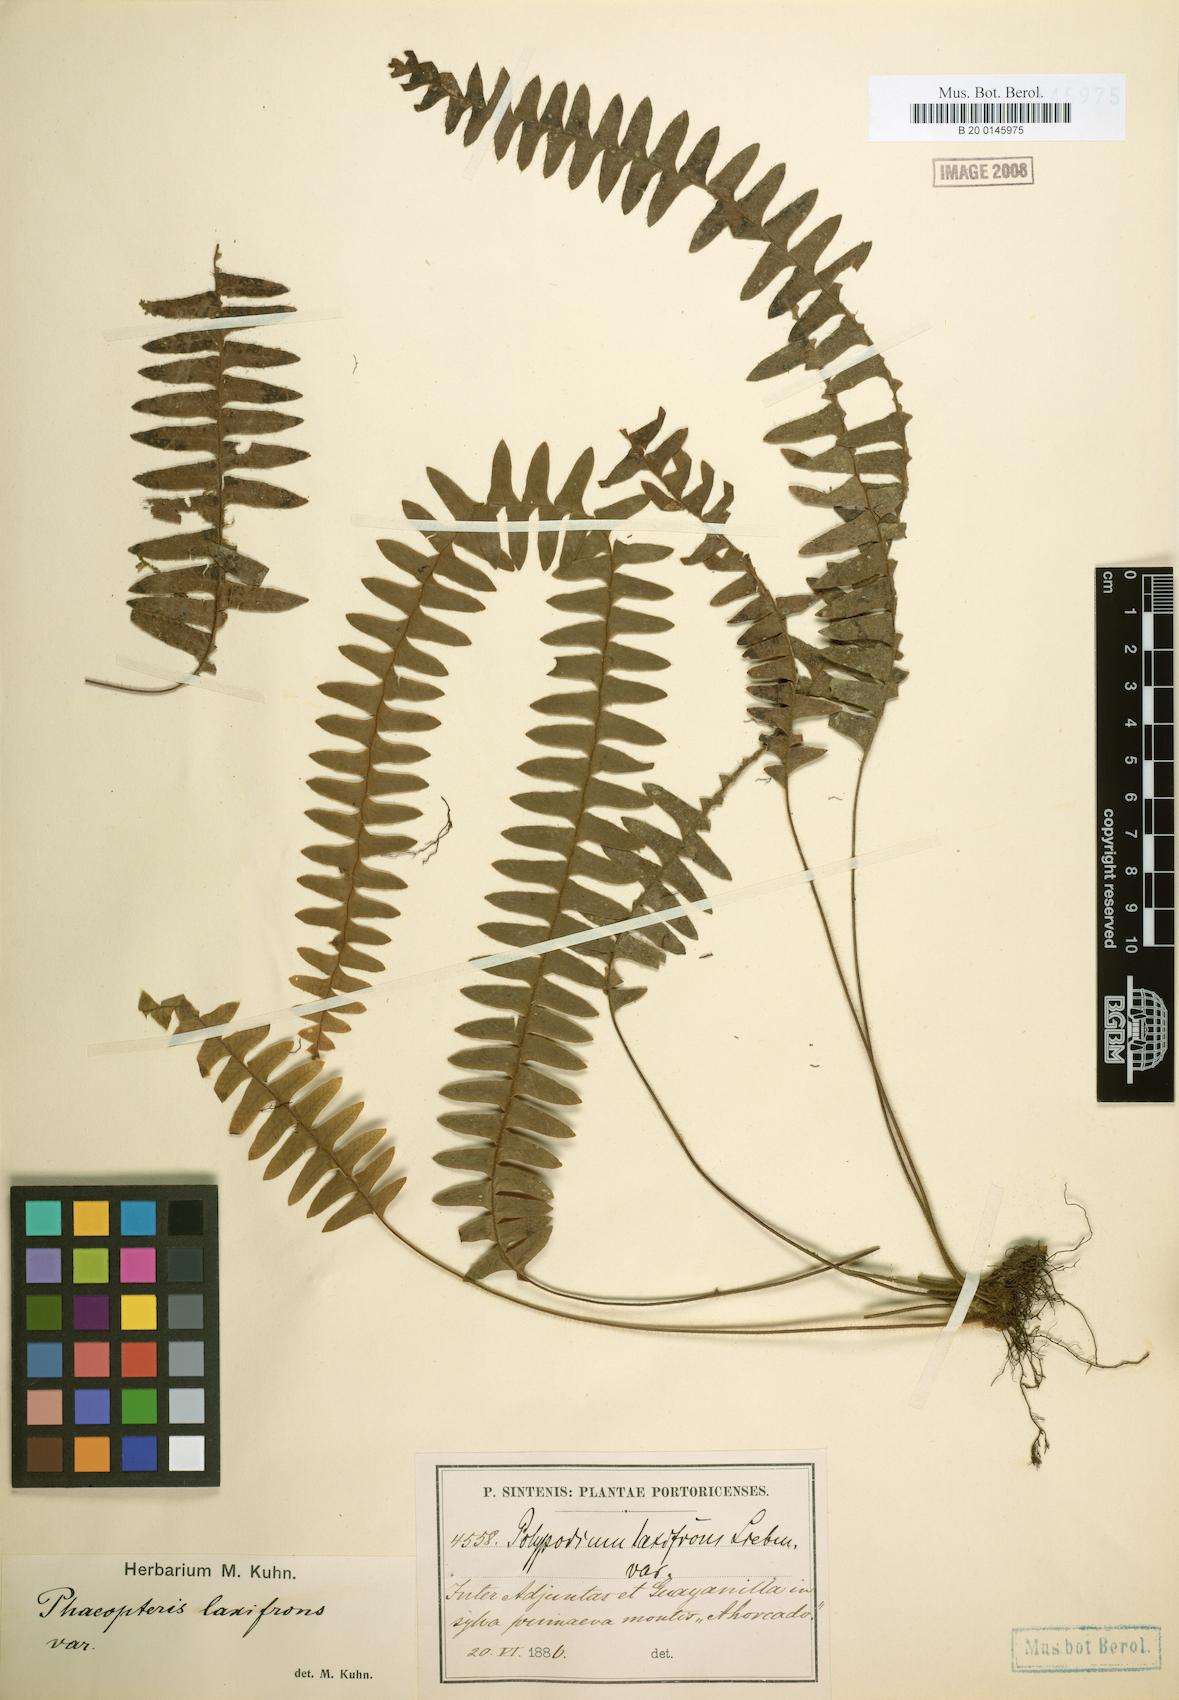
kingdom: Plantae
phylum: Tracheophyta
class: Polypodiopsida
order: Polypodiales
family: Polypodiaceae
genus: Terpsichore
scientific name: Terpsichore asplenifolia
